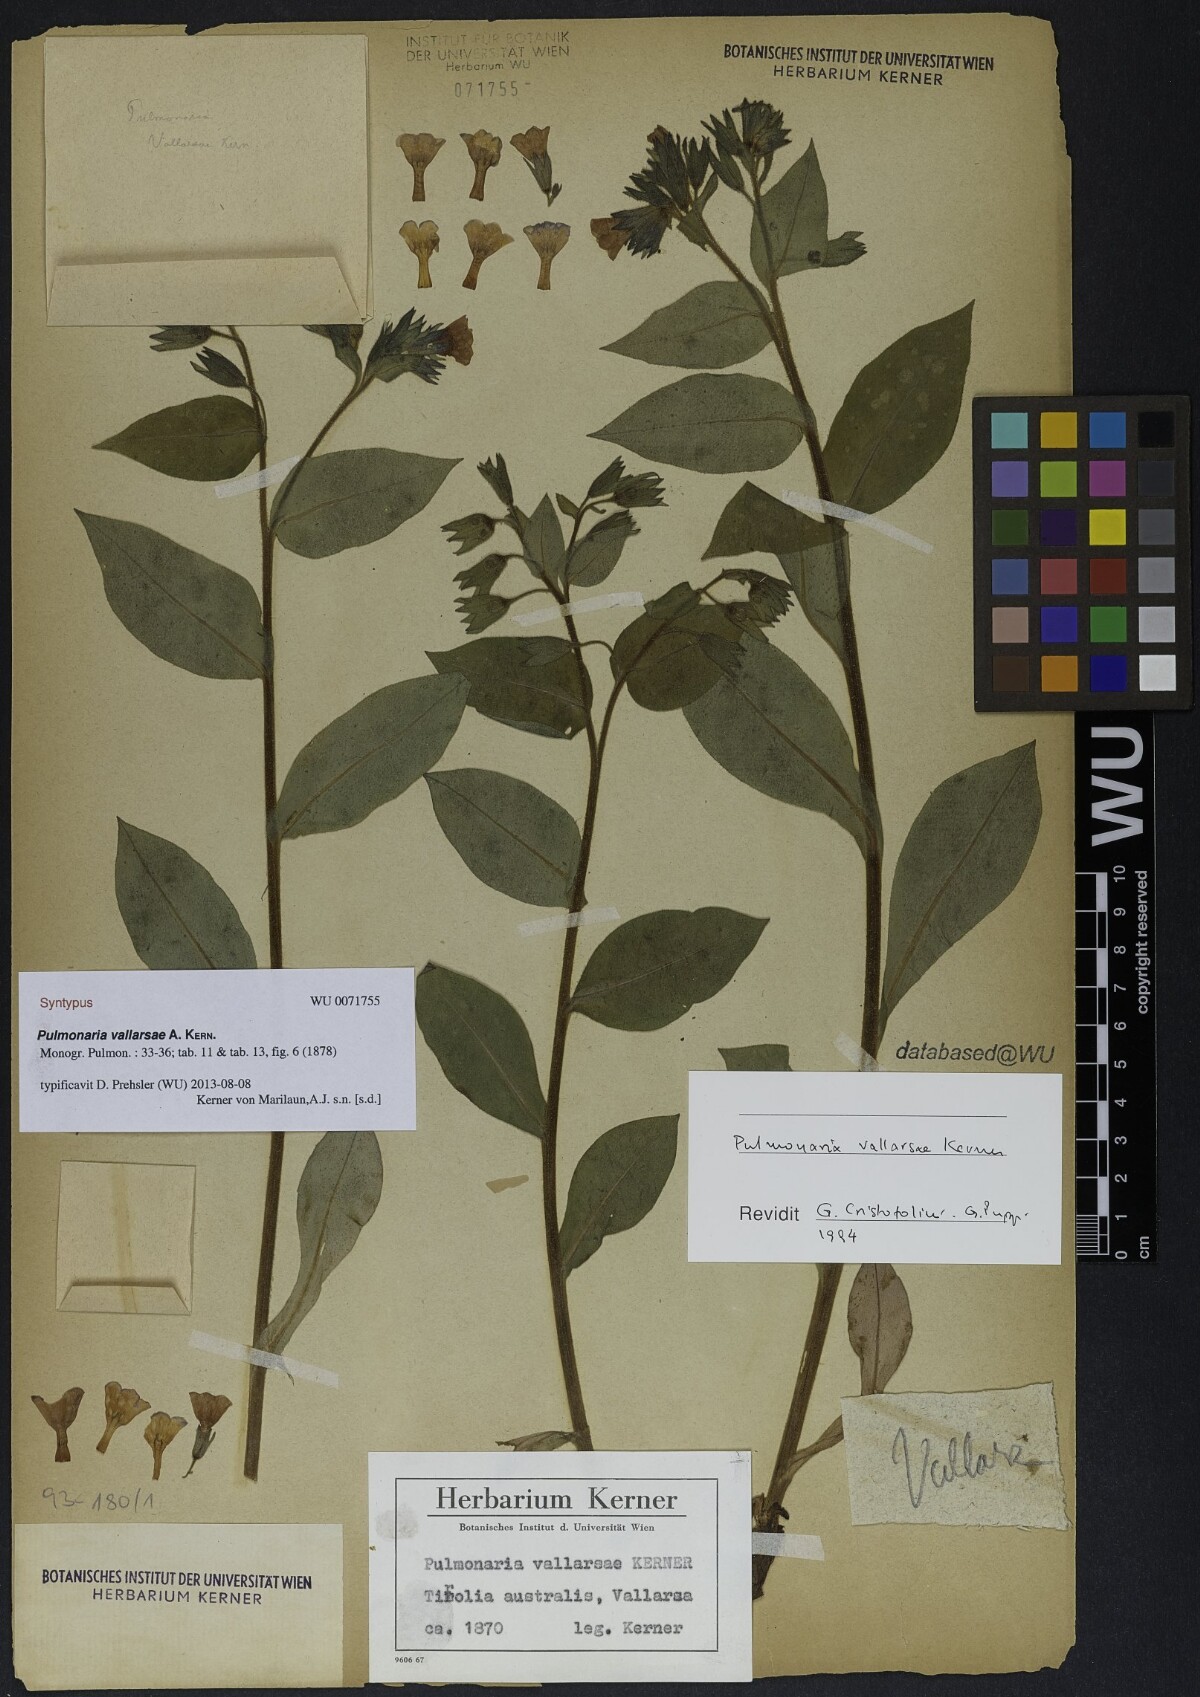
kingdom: Plantae
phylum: Tracheophyta
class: Magnoliopsida
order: Boraginales
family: Boraginaceae
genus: Pulmonaria
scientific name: Pulmonaria hirta
